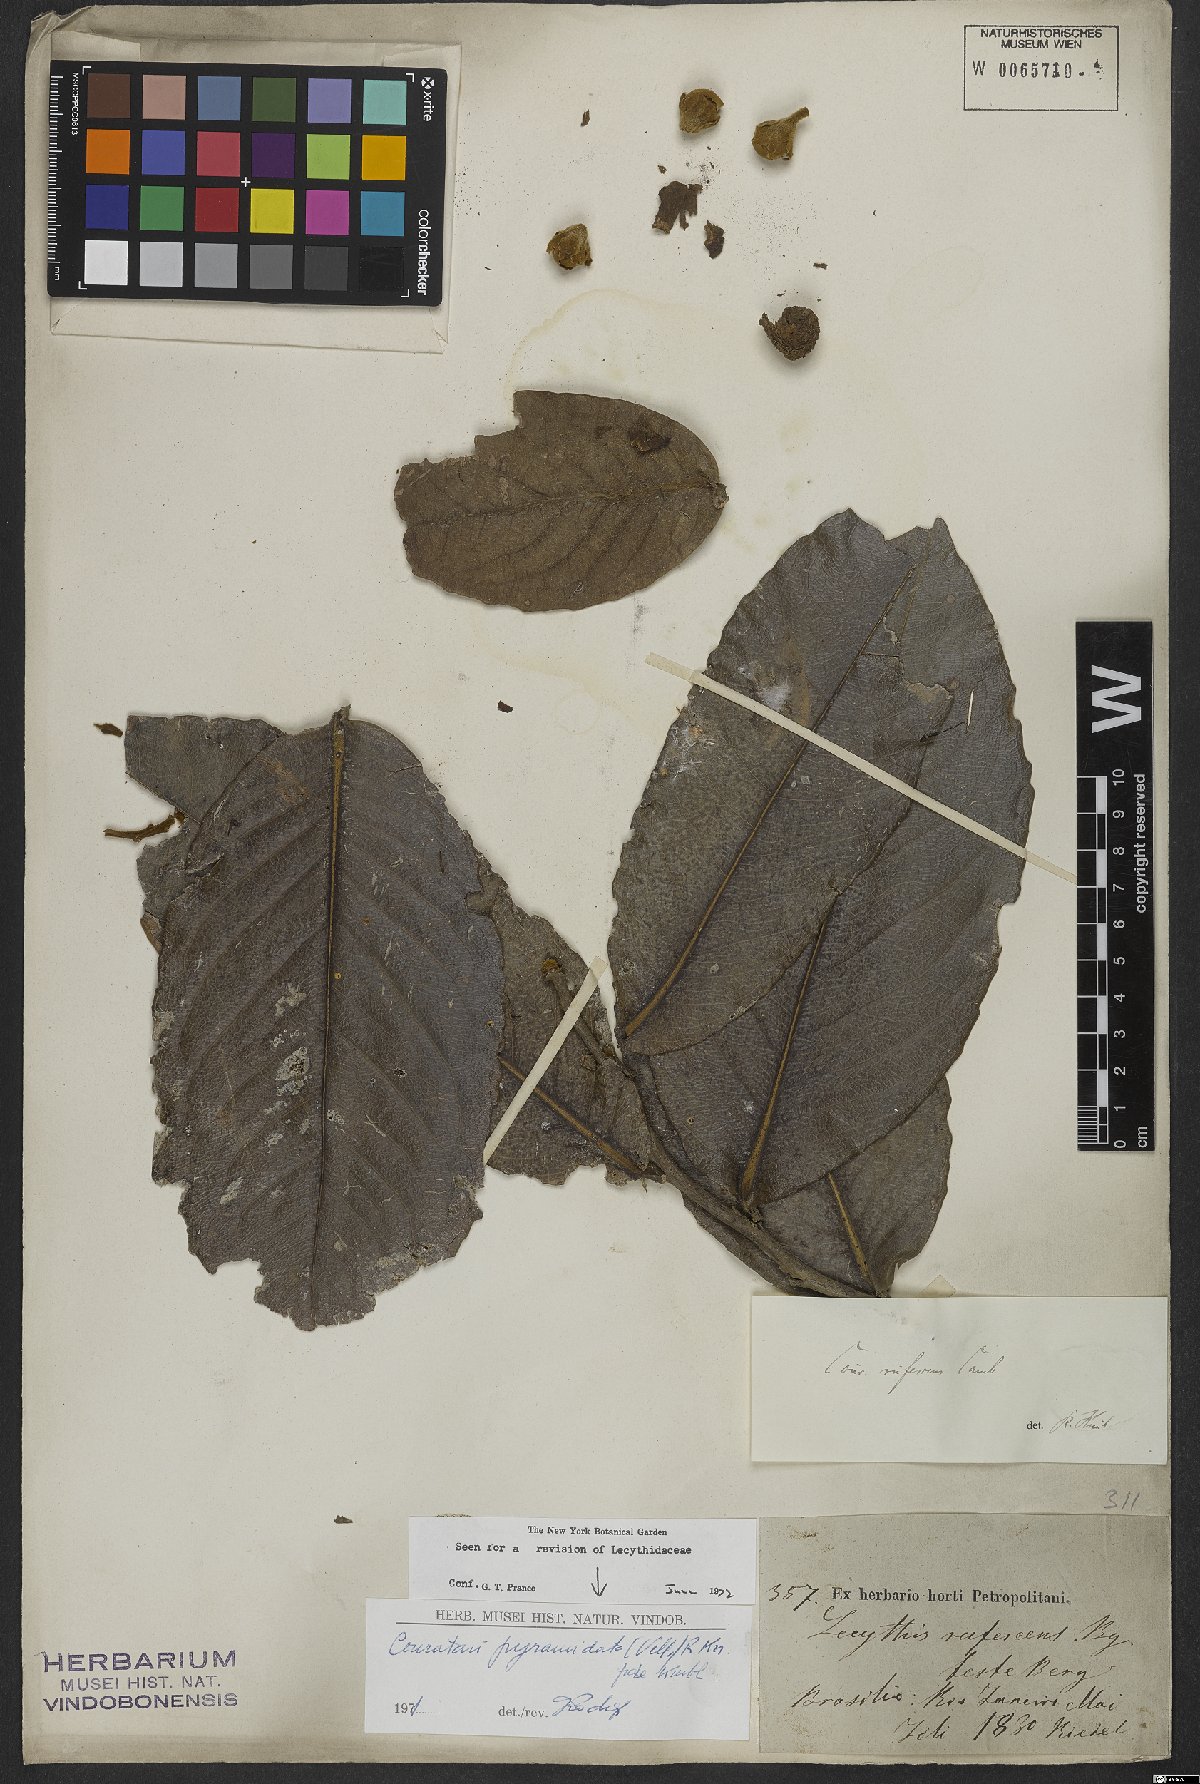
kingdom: Plantae
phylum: Tracheophyta
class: Magnoliopsida
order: Ericales
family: Lecythidaceae
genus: Couratari
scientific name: Couratari pyramidata
